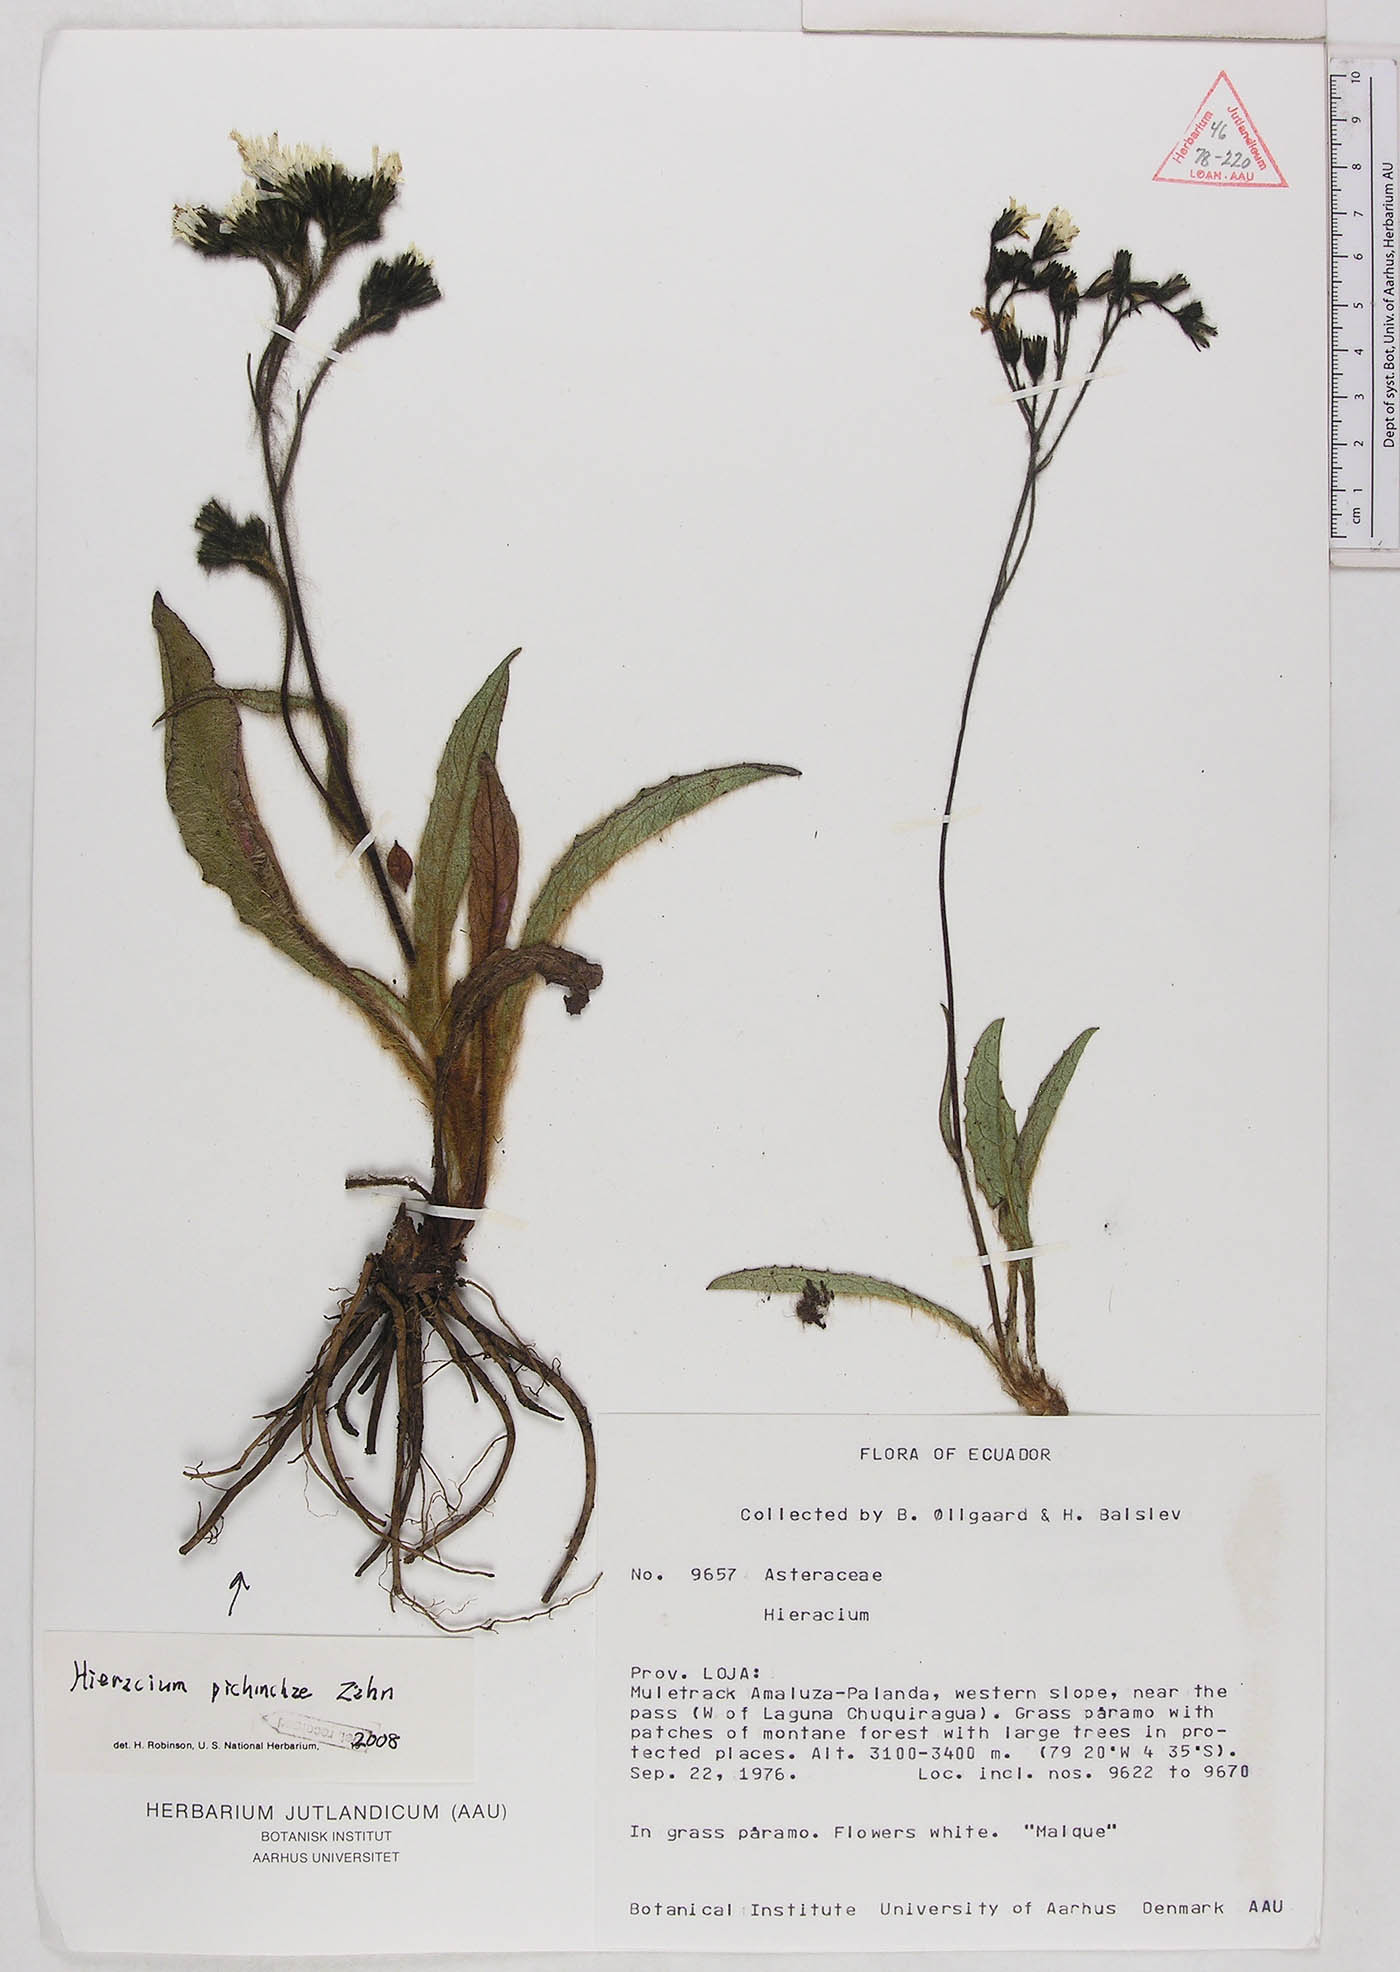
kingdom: Plantae
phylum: Tracheophyta
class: Magnoliopsida
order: Asterales
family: Asteraceae
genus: Hieracium
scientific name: Hieracium pichinchae
